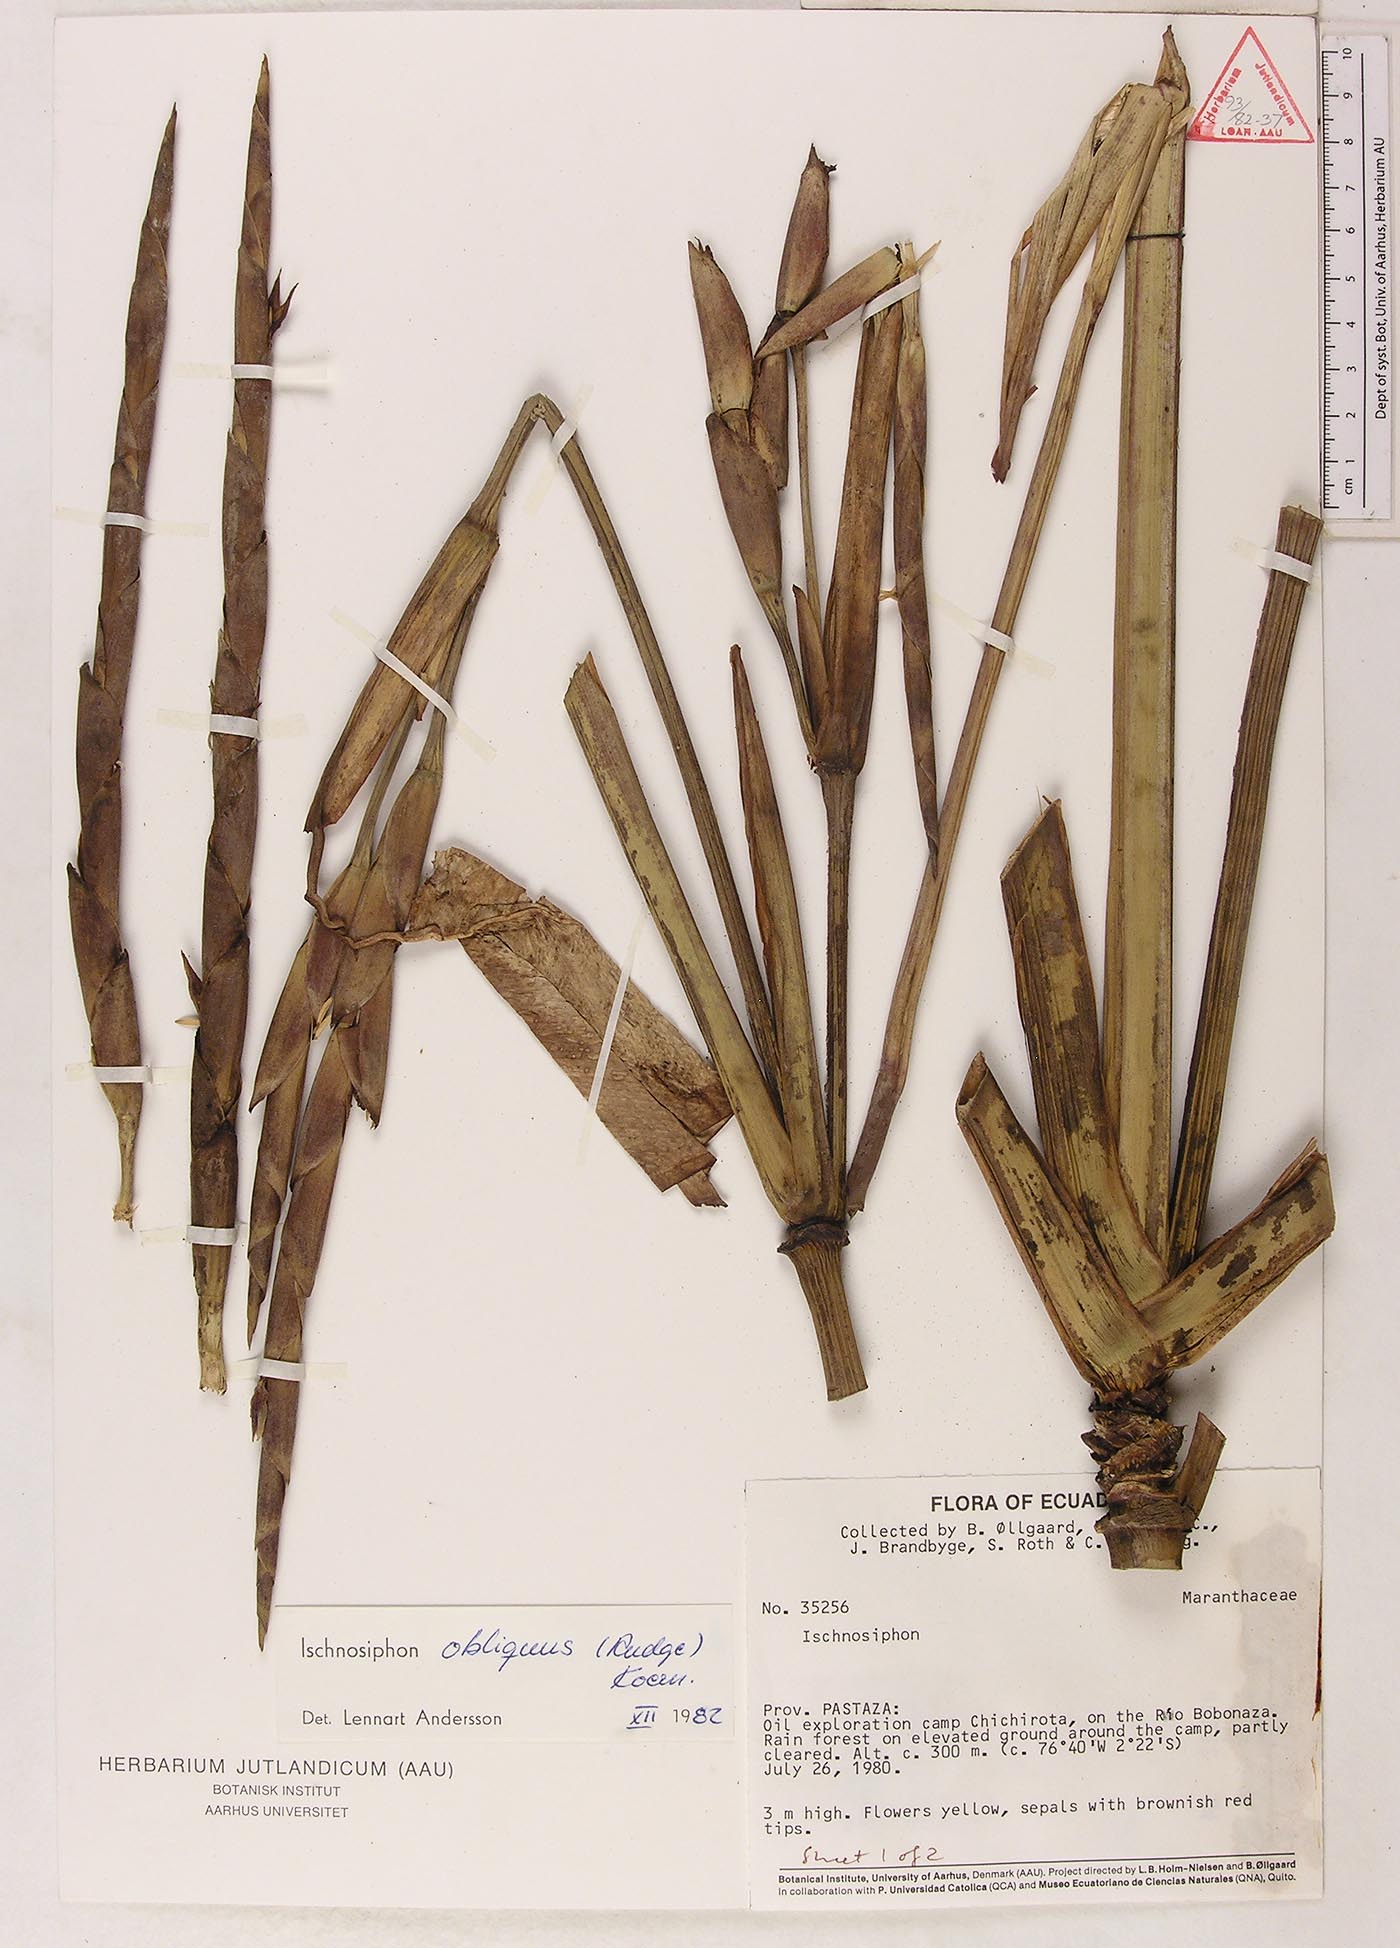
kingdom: Plantae
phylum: Tracheophyta
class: Liliopsida
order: Zingiberales
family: Marantaceae
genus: Ischnosiphon
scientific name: Ischnosiphon obliquus
